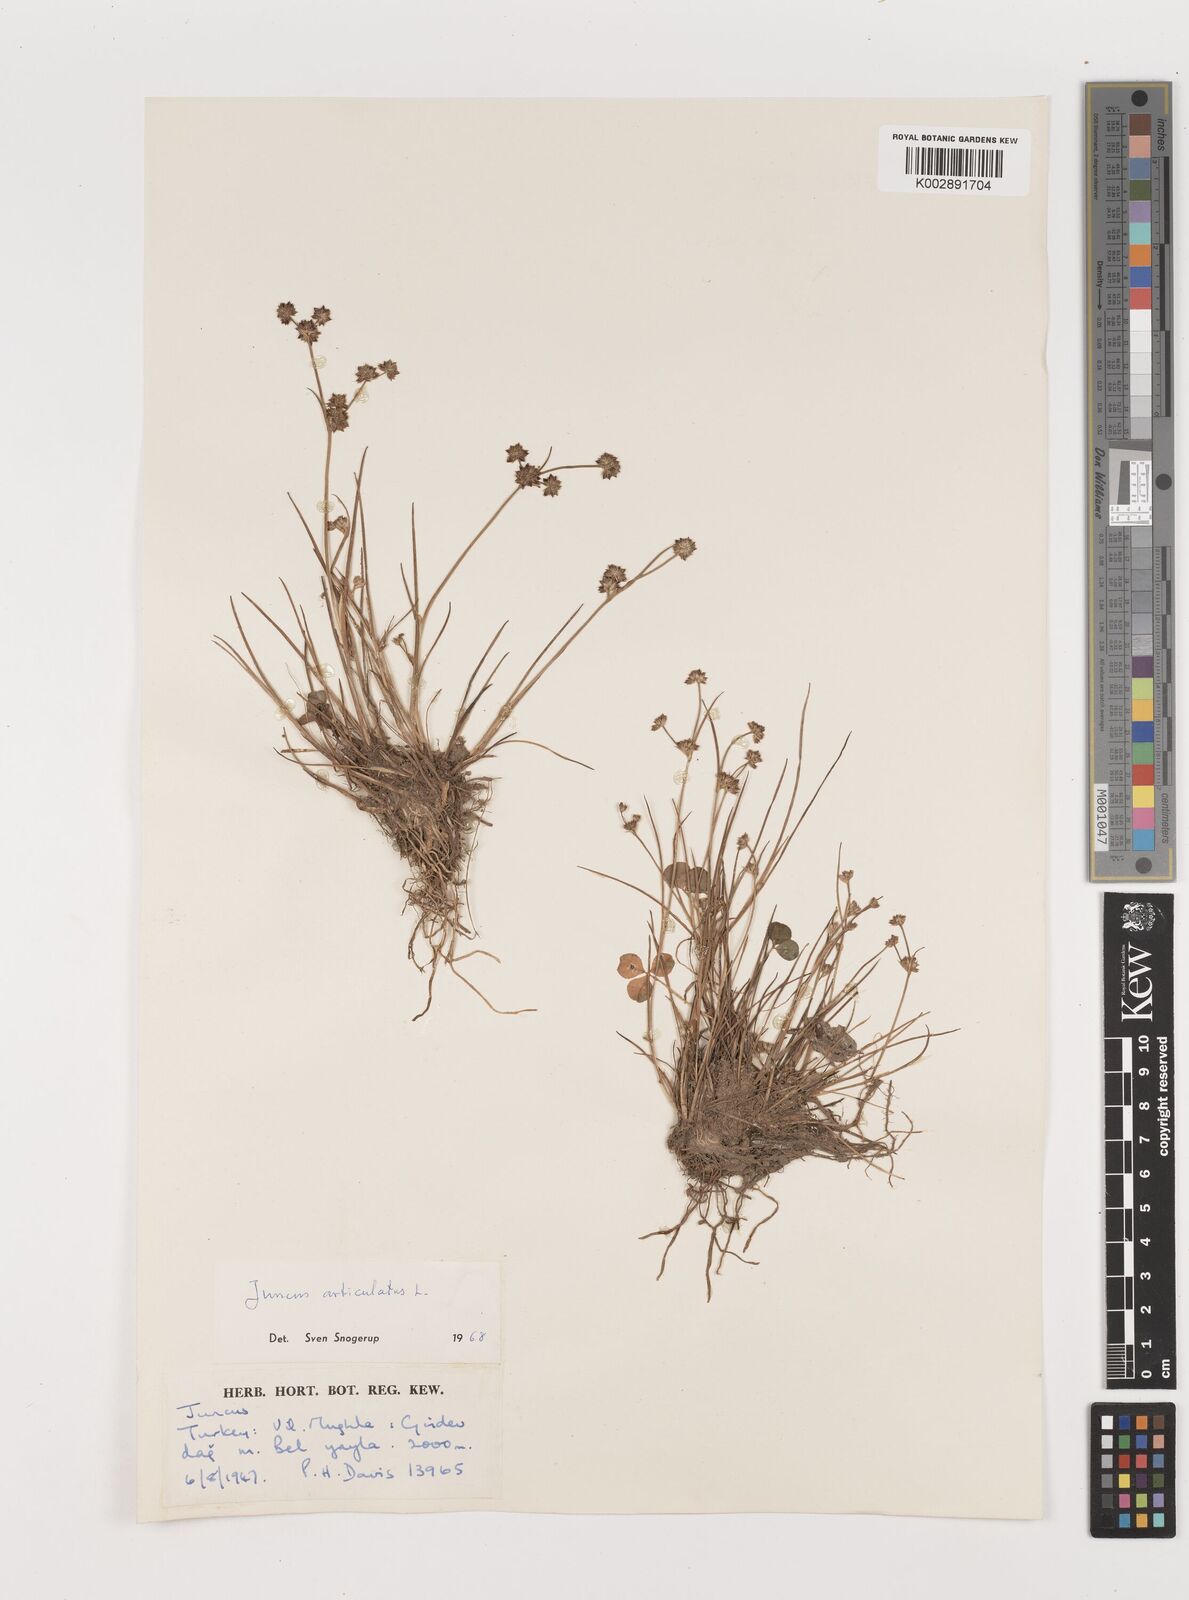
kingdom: Plantae
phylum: Tracheophyta
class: Liliopsida
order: Poales
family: Juncaceae
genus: Juncus
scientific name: Juncus articulatus
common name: Jointed rush
